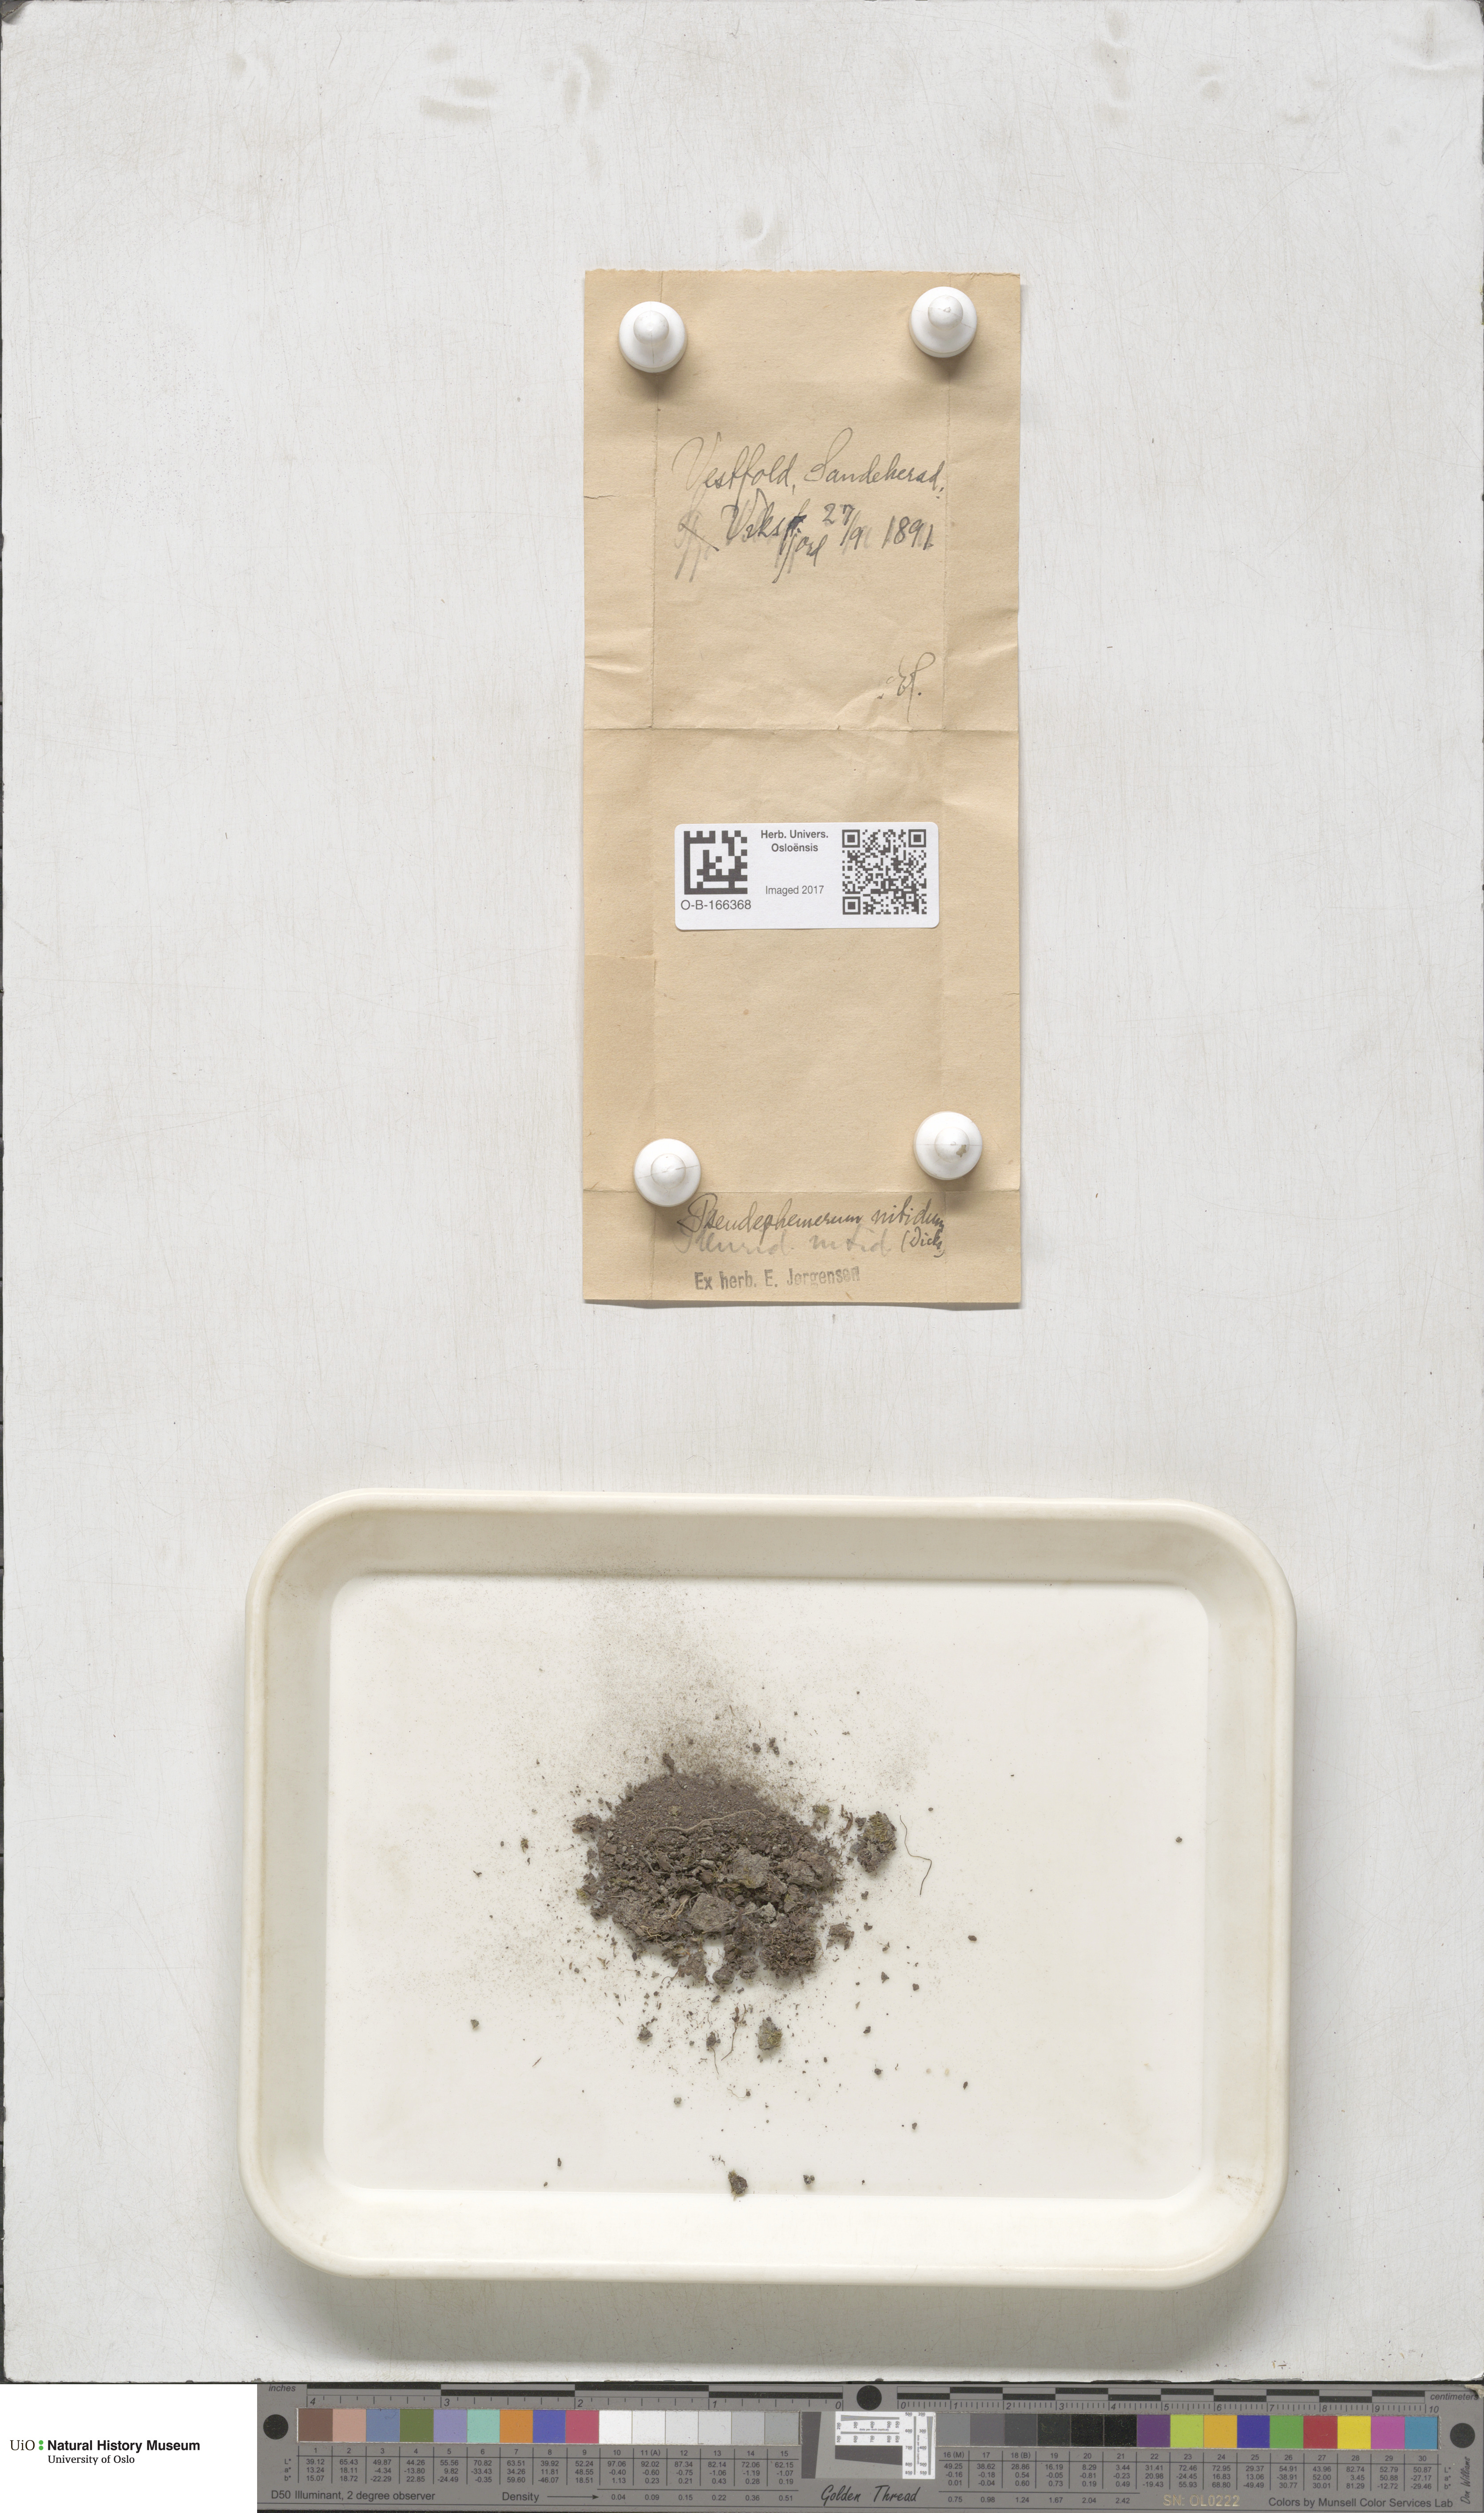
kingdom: Plantae
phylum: Bryophyta
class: Bryopsida
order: Dicranales
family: Ditrichaceae
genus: Pseudephemerum
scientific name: Pseudephemerum nitidum
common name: Delicate earth-moss
